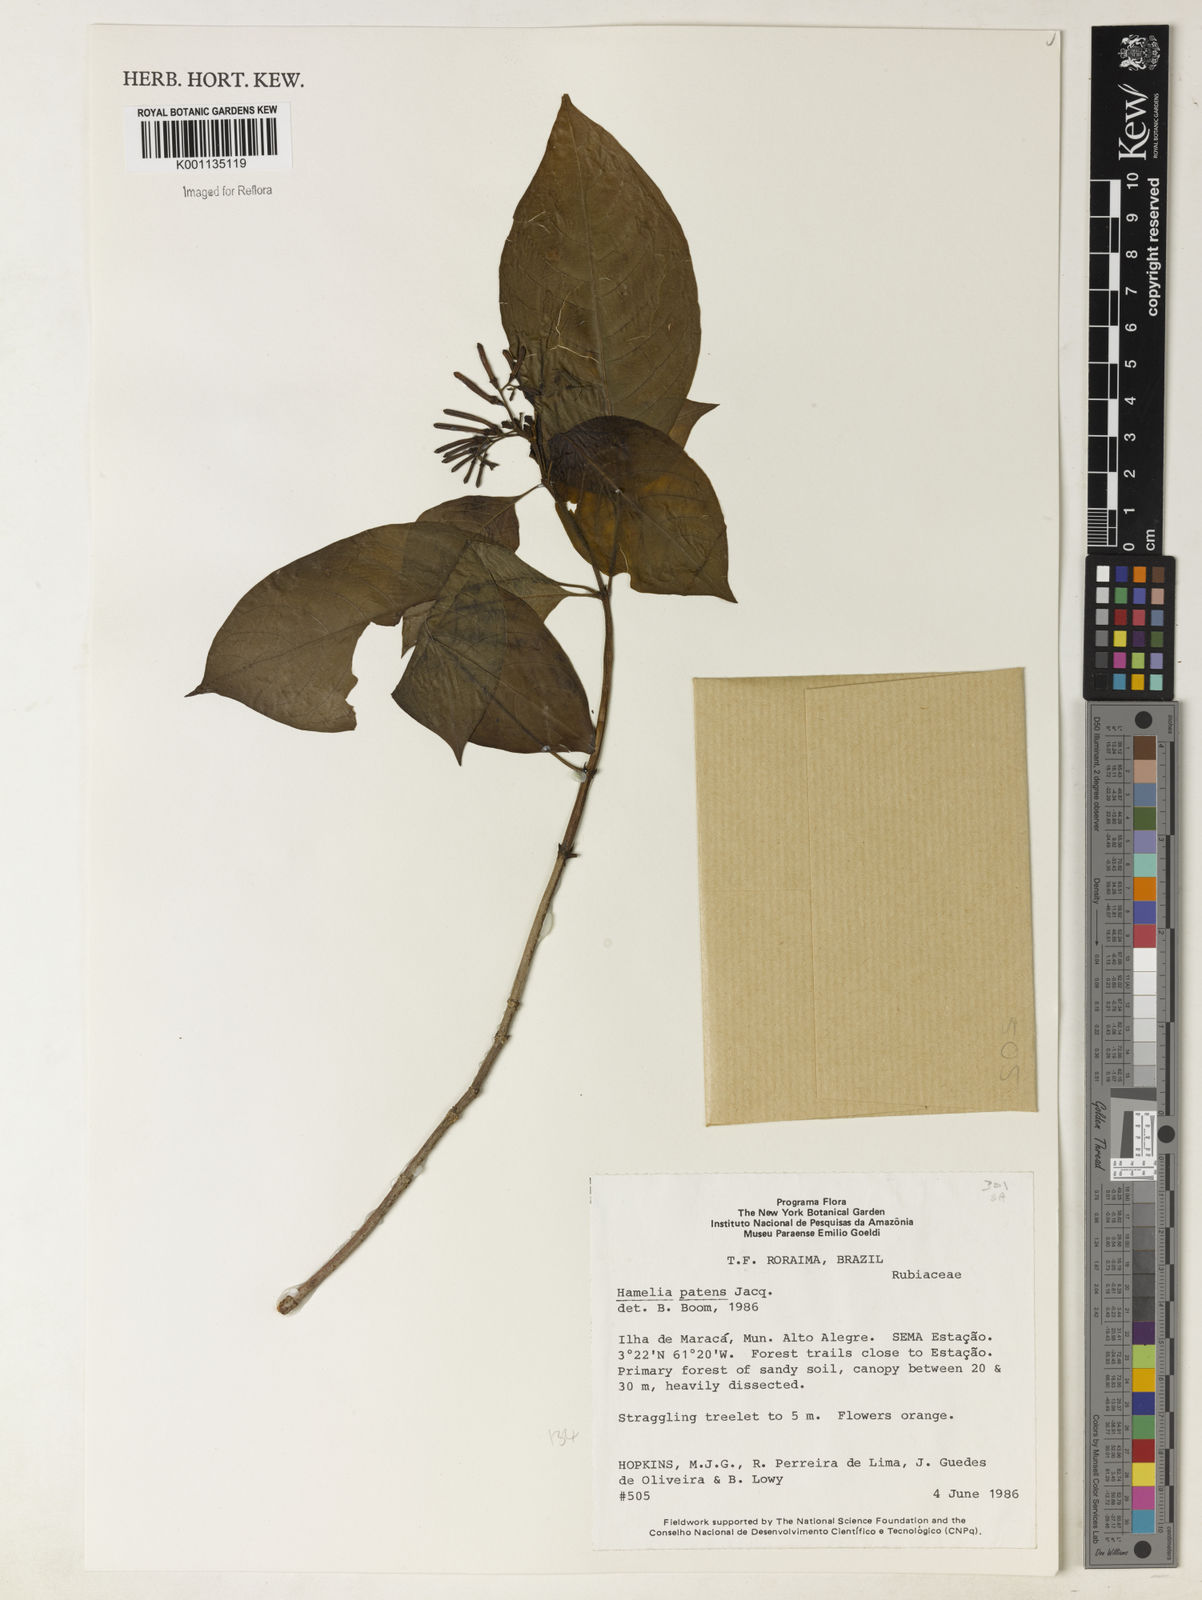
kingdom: Plantae
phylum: Tracheophyta
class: Magnoliopsida
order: Gentianales
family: Rubiaceae
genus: Hamelia
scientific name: Hamelia patens
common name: Redhead
